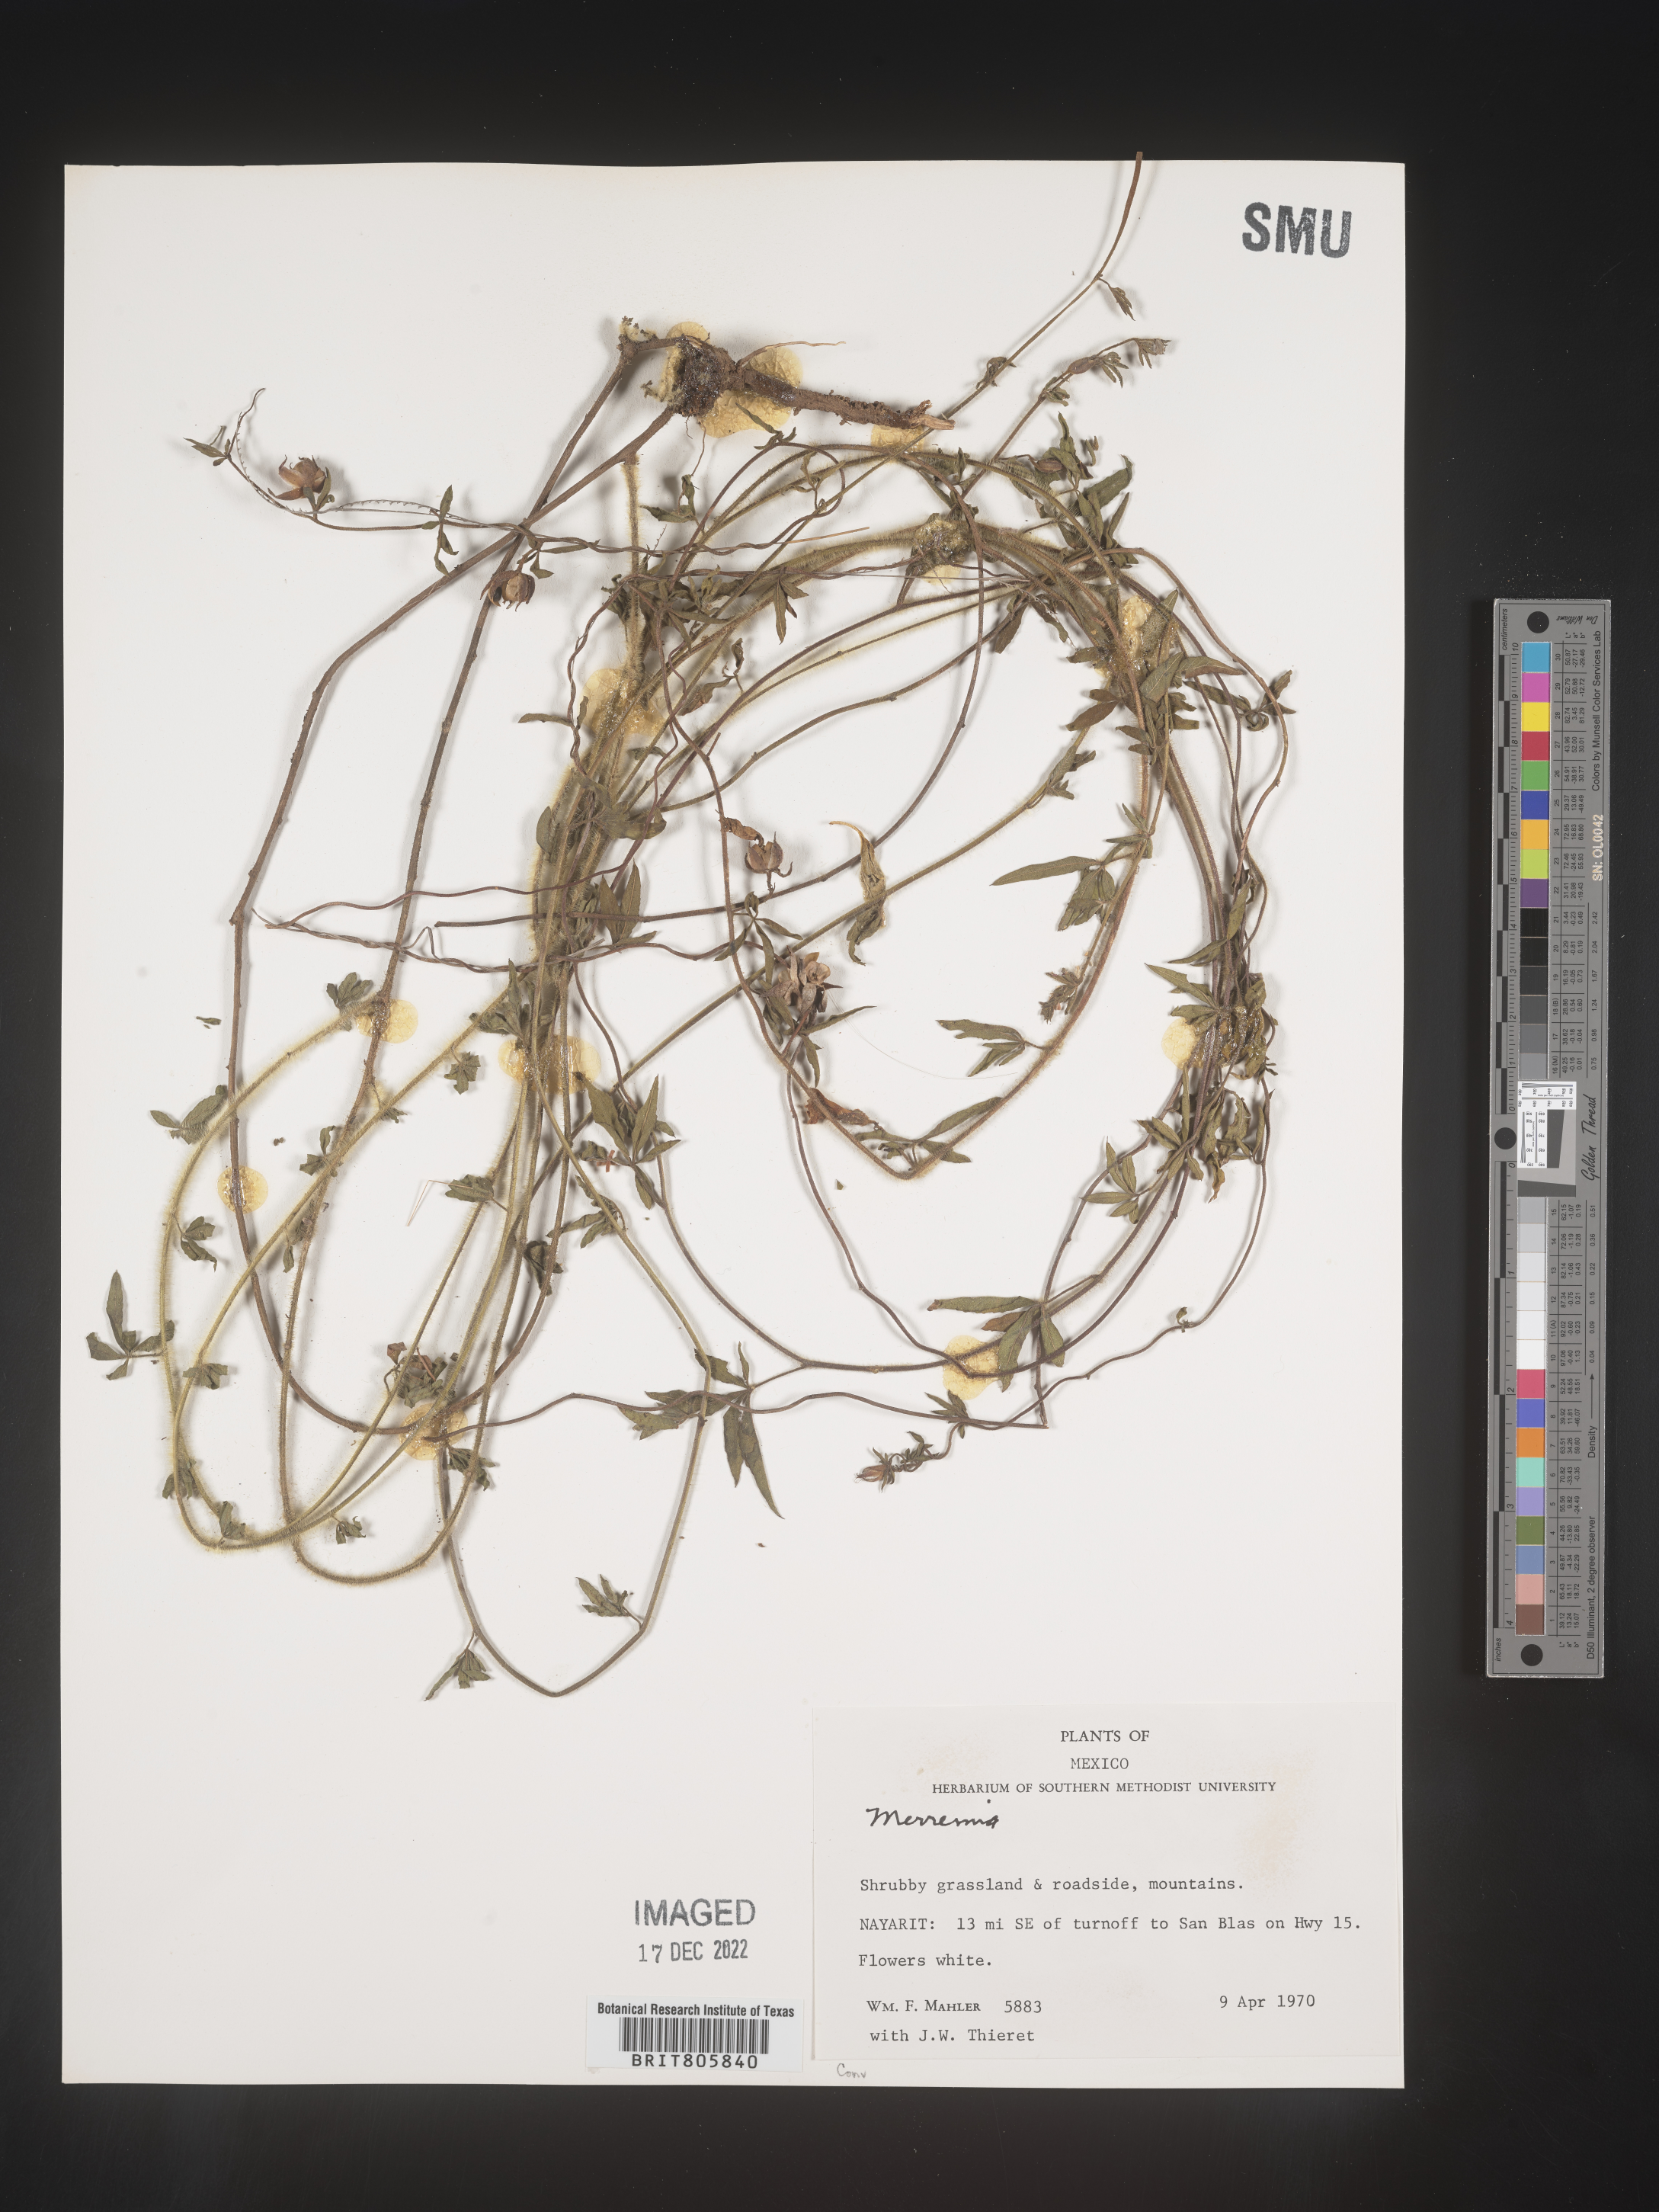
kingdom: Plantae
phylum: Tracheophyta
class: Magnoliopsida
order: Solanales
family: Convolvulaceae
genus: Merremia
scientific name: Merremia
